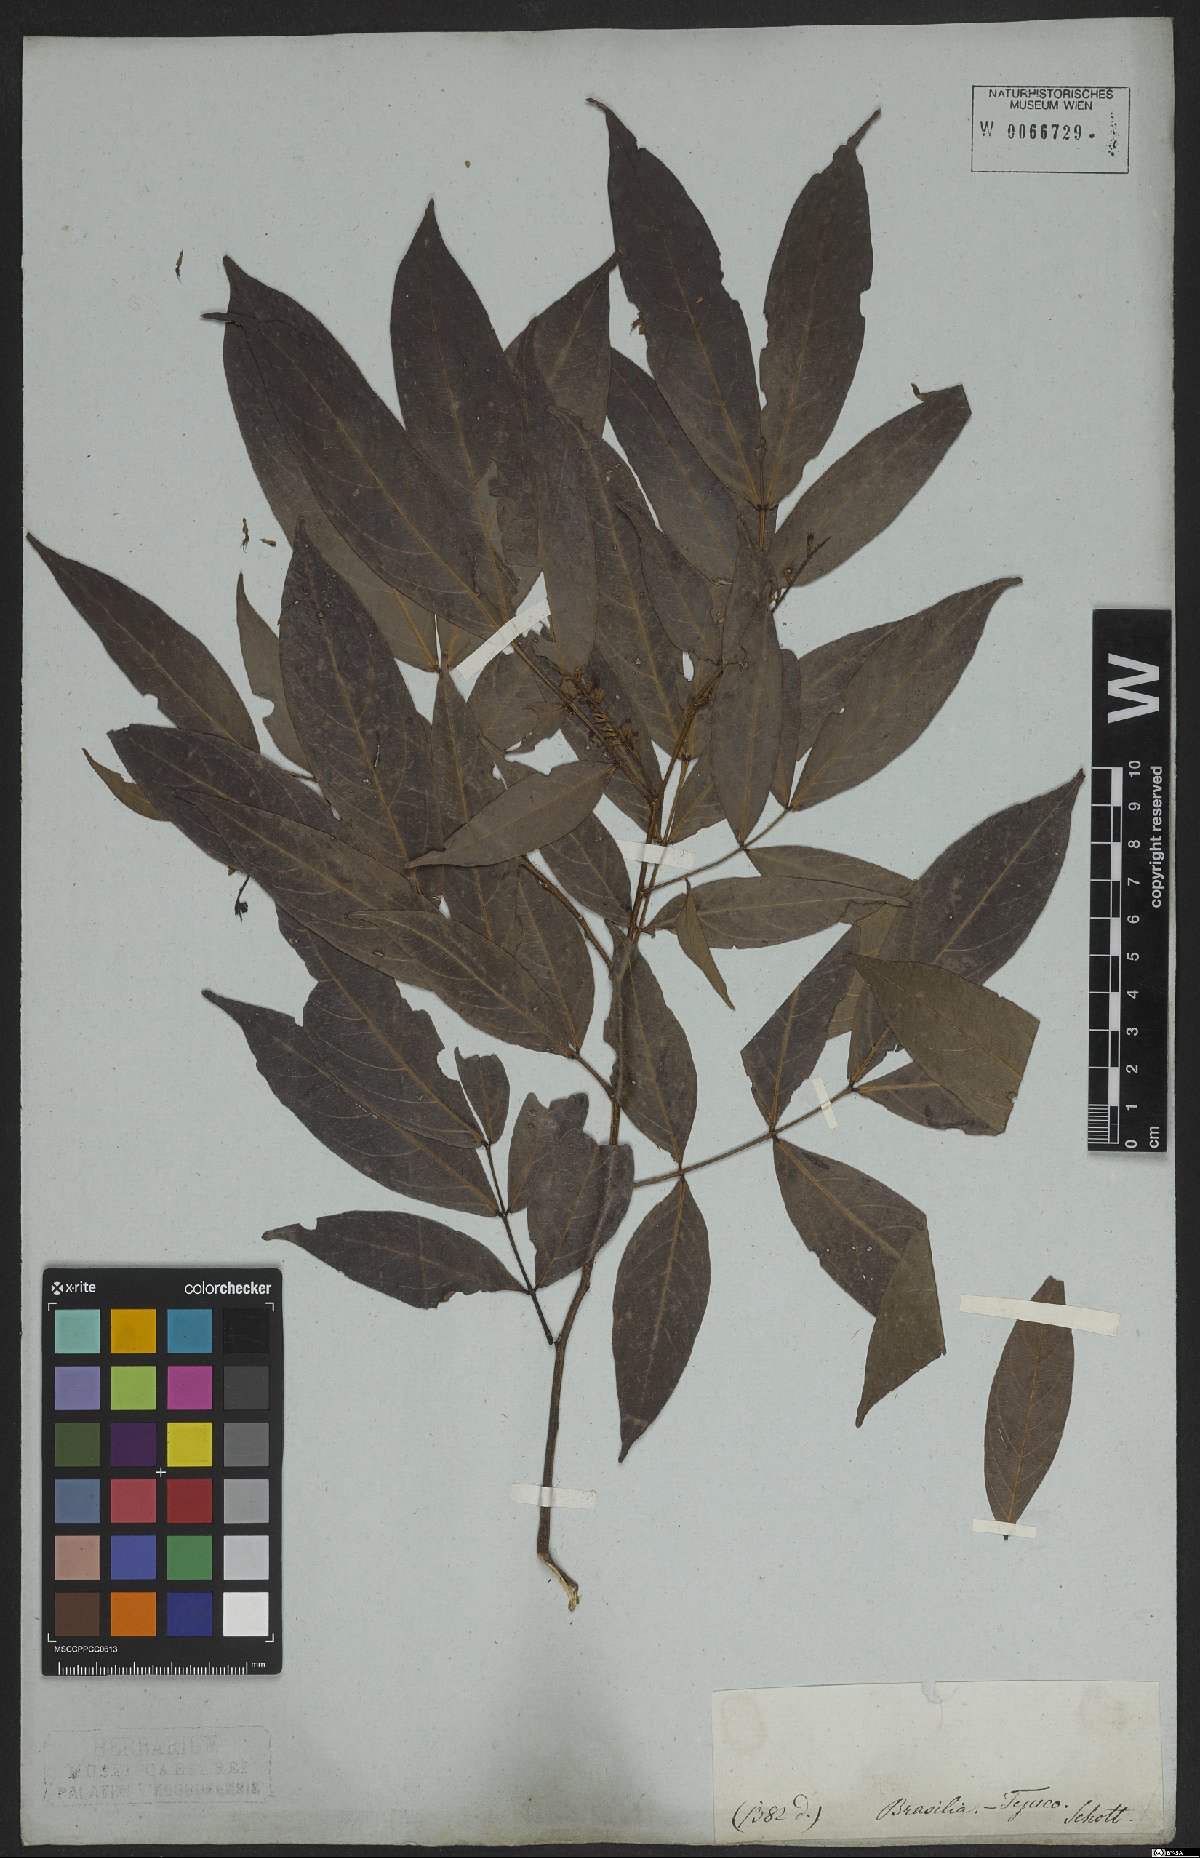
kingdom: Plantae
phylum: Tracheophyta
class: Magnoliopsida
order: Fabales
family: Fabaceae
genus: Inga
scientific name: Inga marginata
